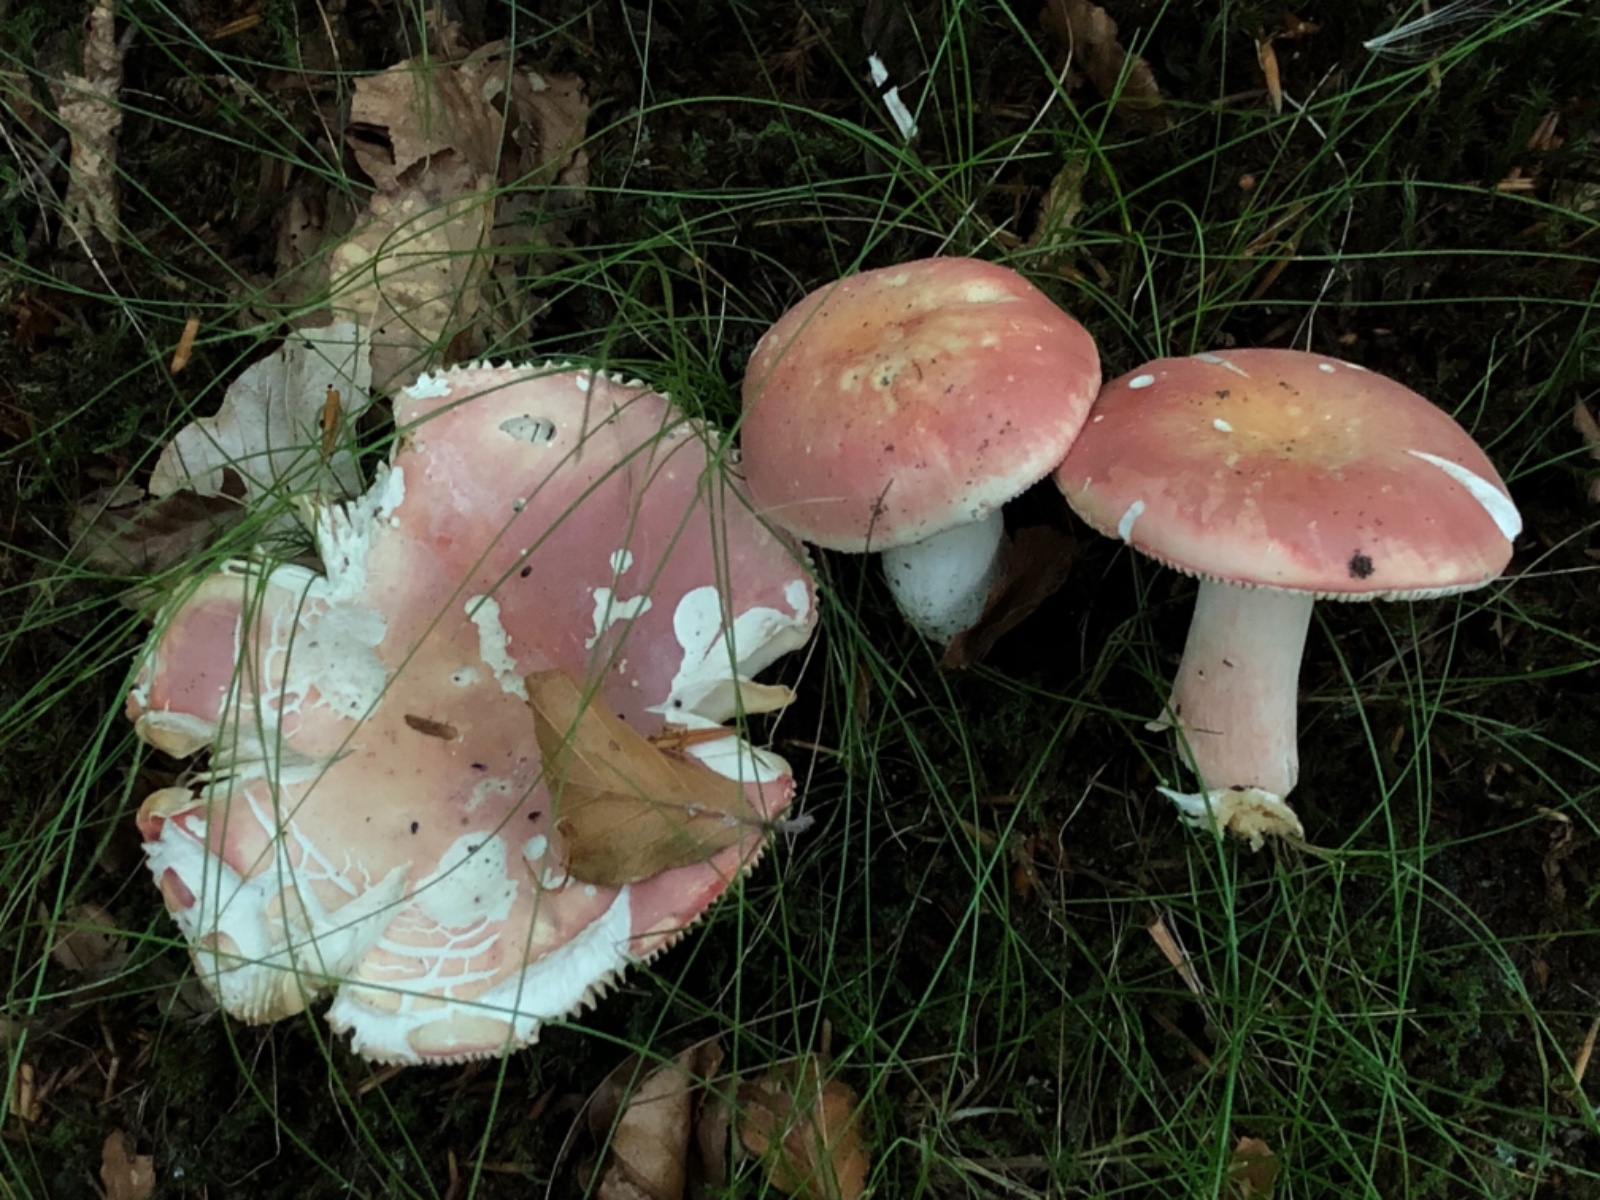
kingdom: Fungi
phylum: Basidiomycota
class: Agaricomycetes
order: Russulales
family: Russulaceae
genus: Russula
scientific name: Russula rosea
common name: fastkødet skørhat
